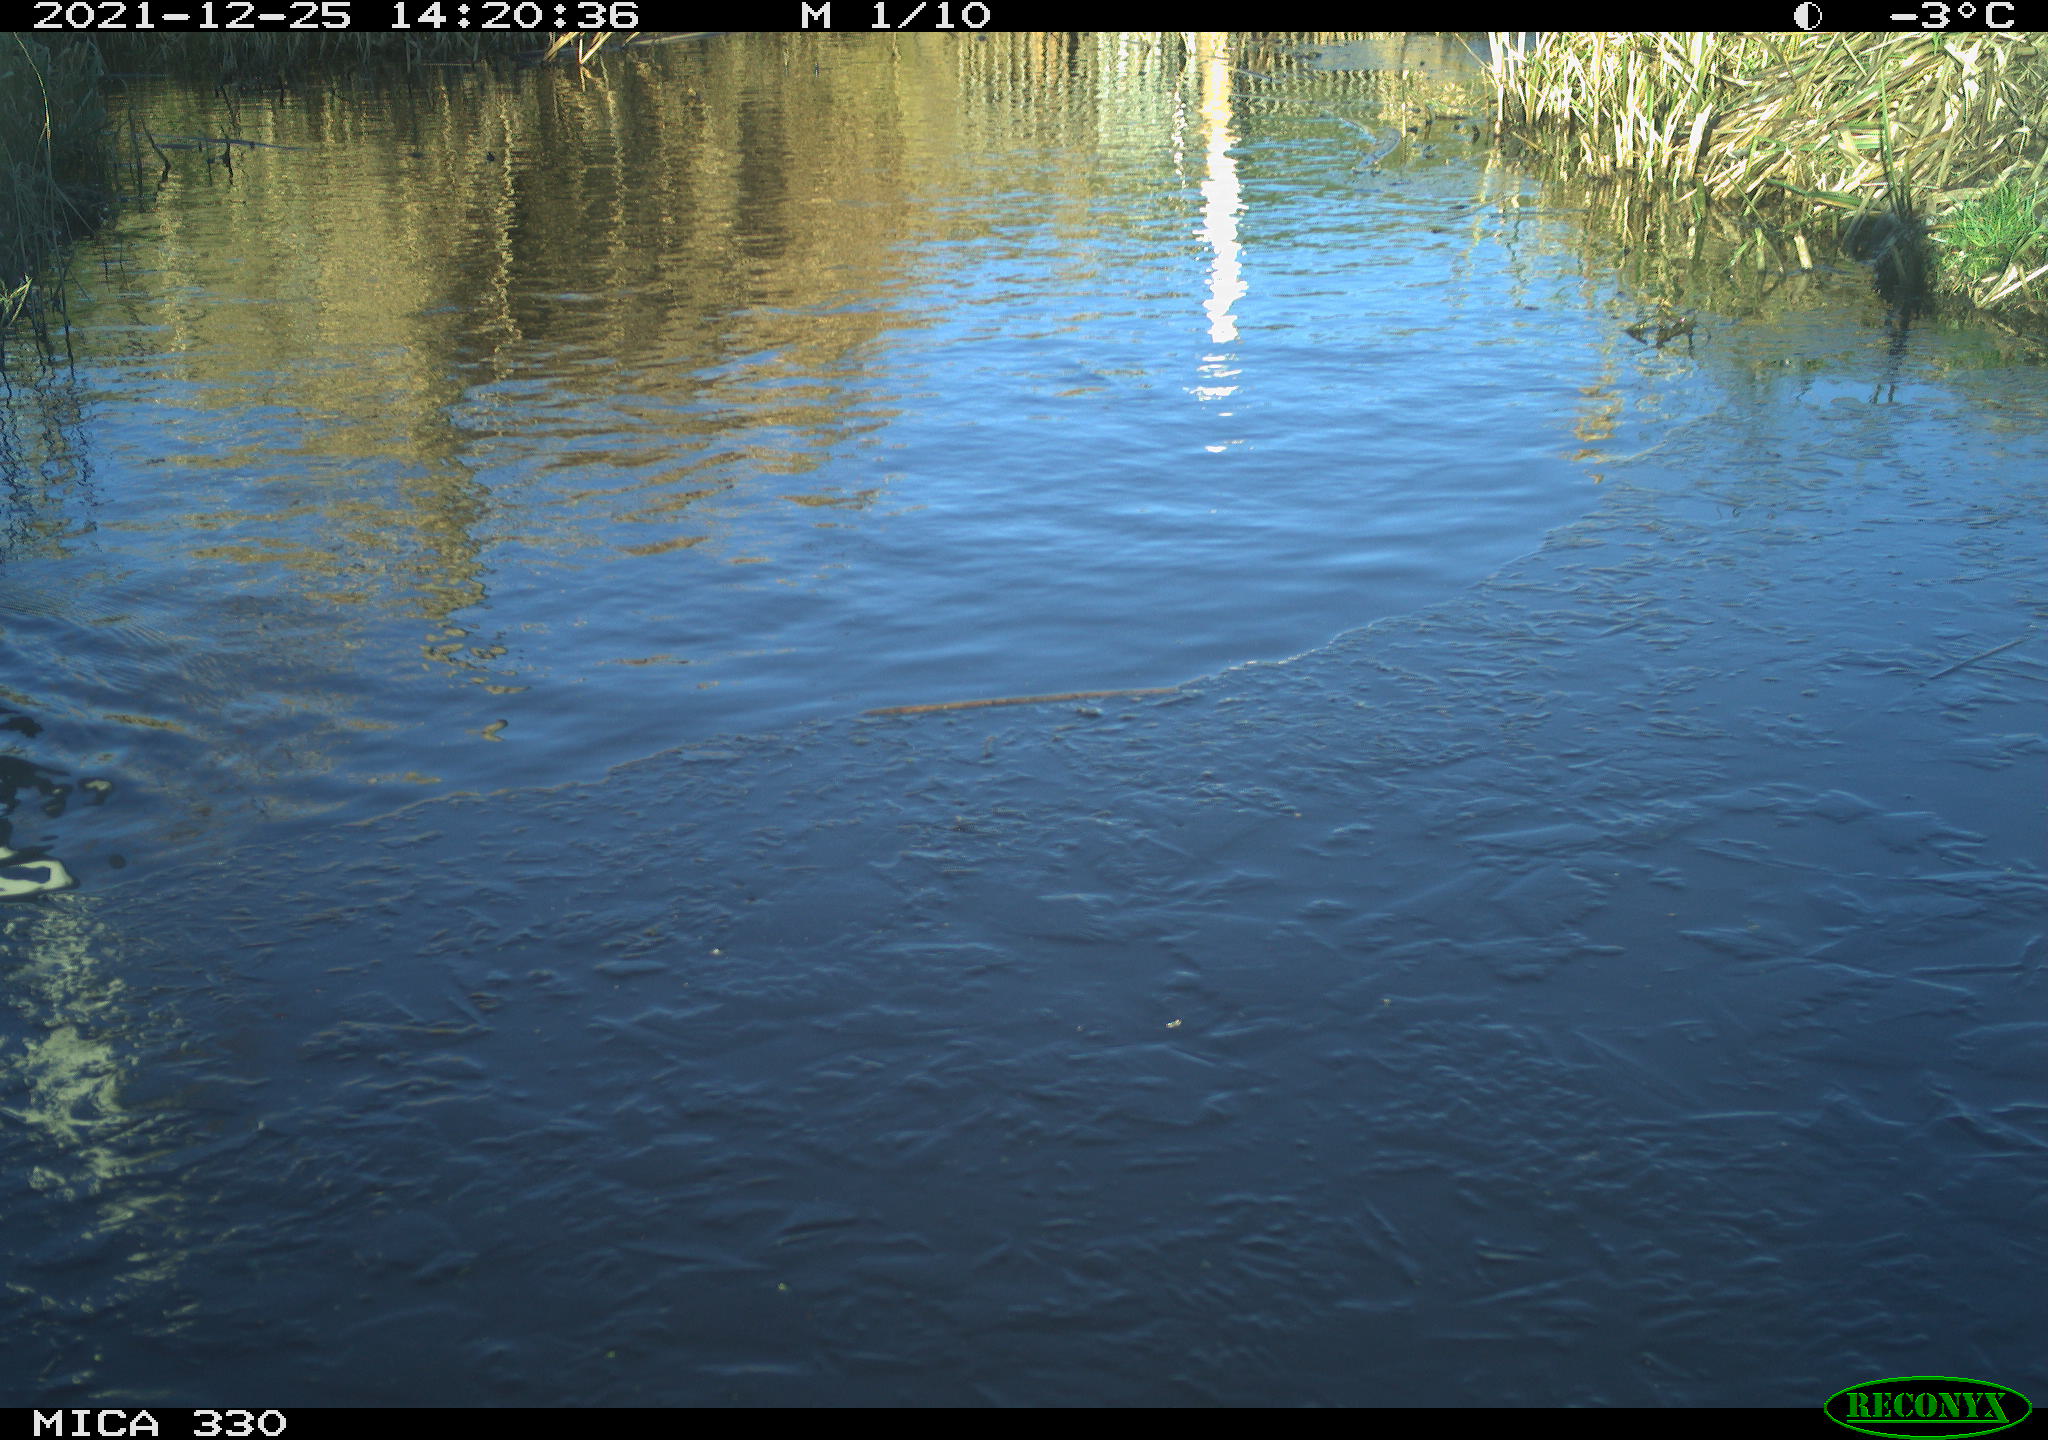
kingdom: Animalia
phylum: Chordata
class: Aves
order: Pelecaniformes
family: Ardeidae
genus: Ardea
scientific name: Ardea alba
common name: Great egret
